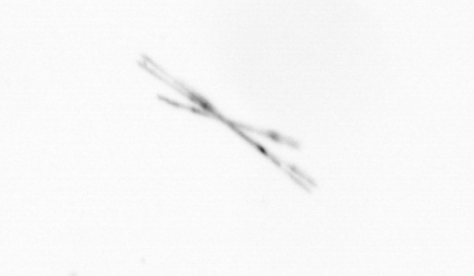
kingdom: Chromista
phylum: Ochrophyta
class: Bacillariophyceae
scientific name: Bacillariophyceae
